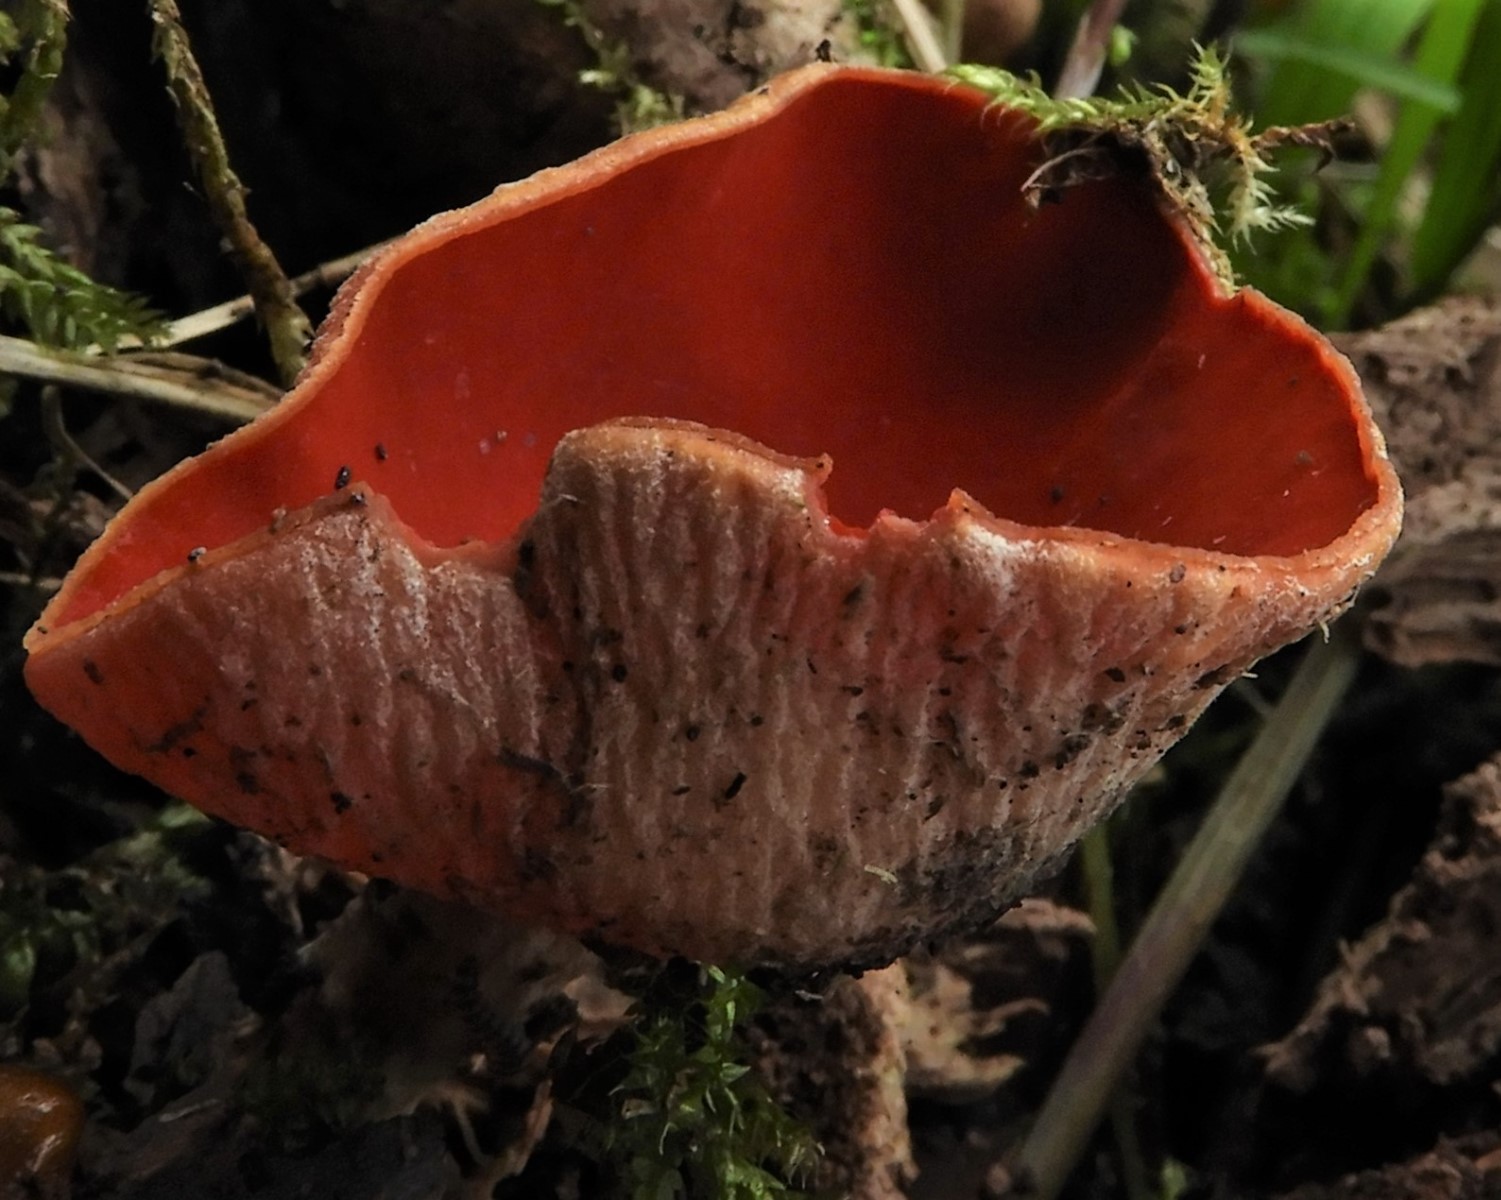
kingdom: Fungi
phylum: Ascomycota
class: Pezizomycetes
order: Pezizales
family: Sarcoscyphaceae
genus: Sarcoscypha
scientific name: Sarcoscypha austriaca
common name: krølhåret pragtbæger
